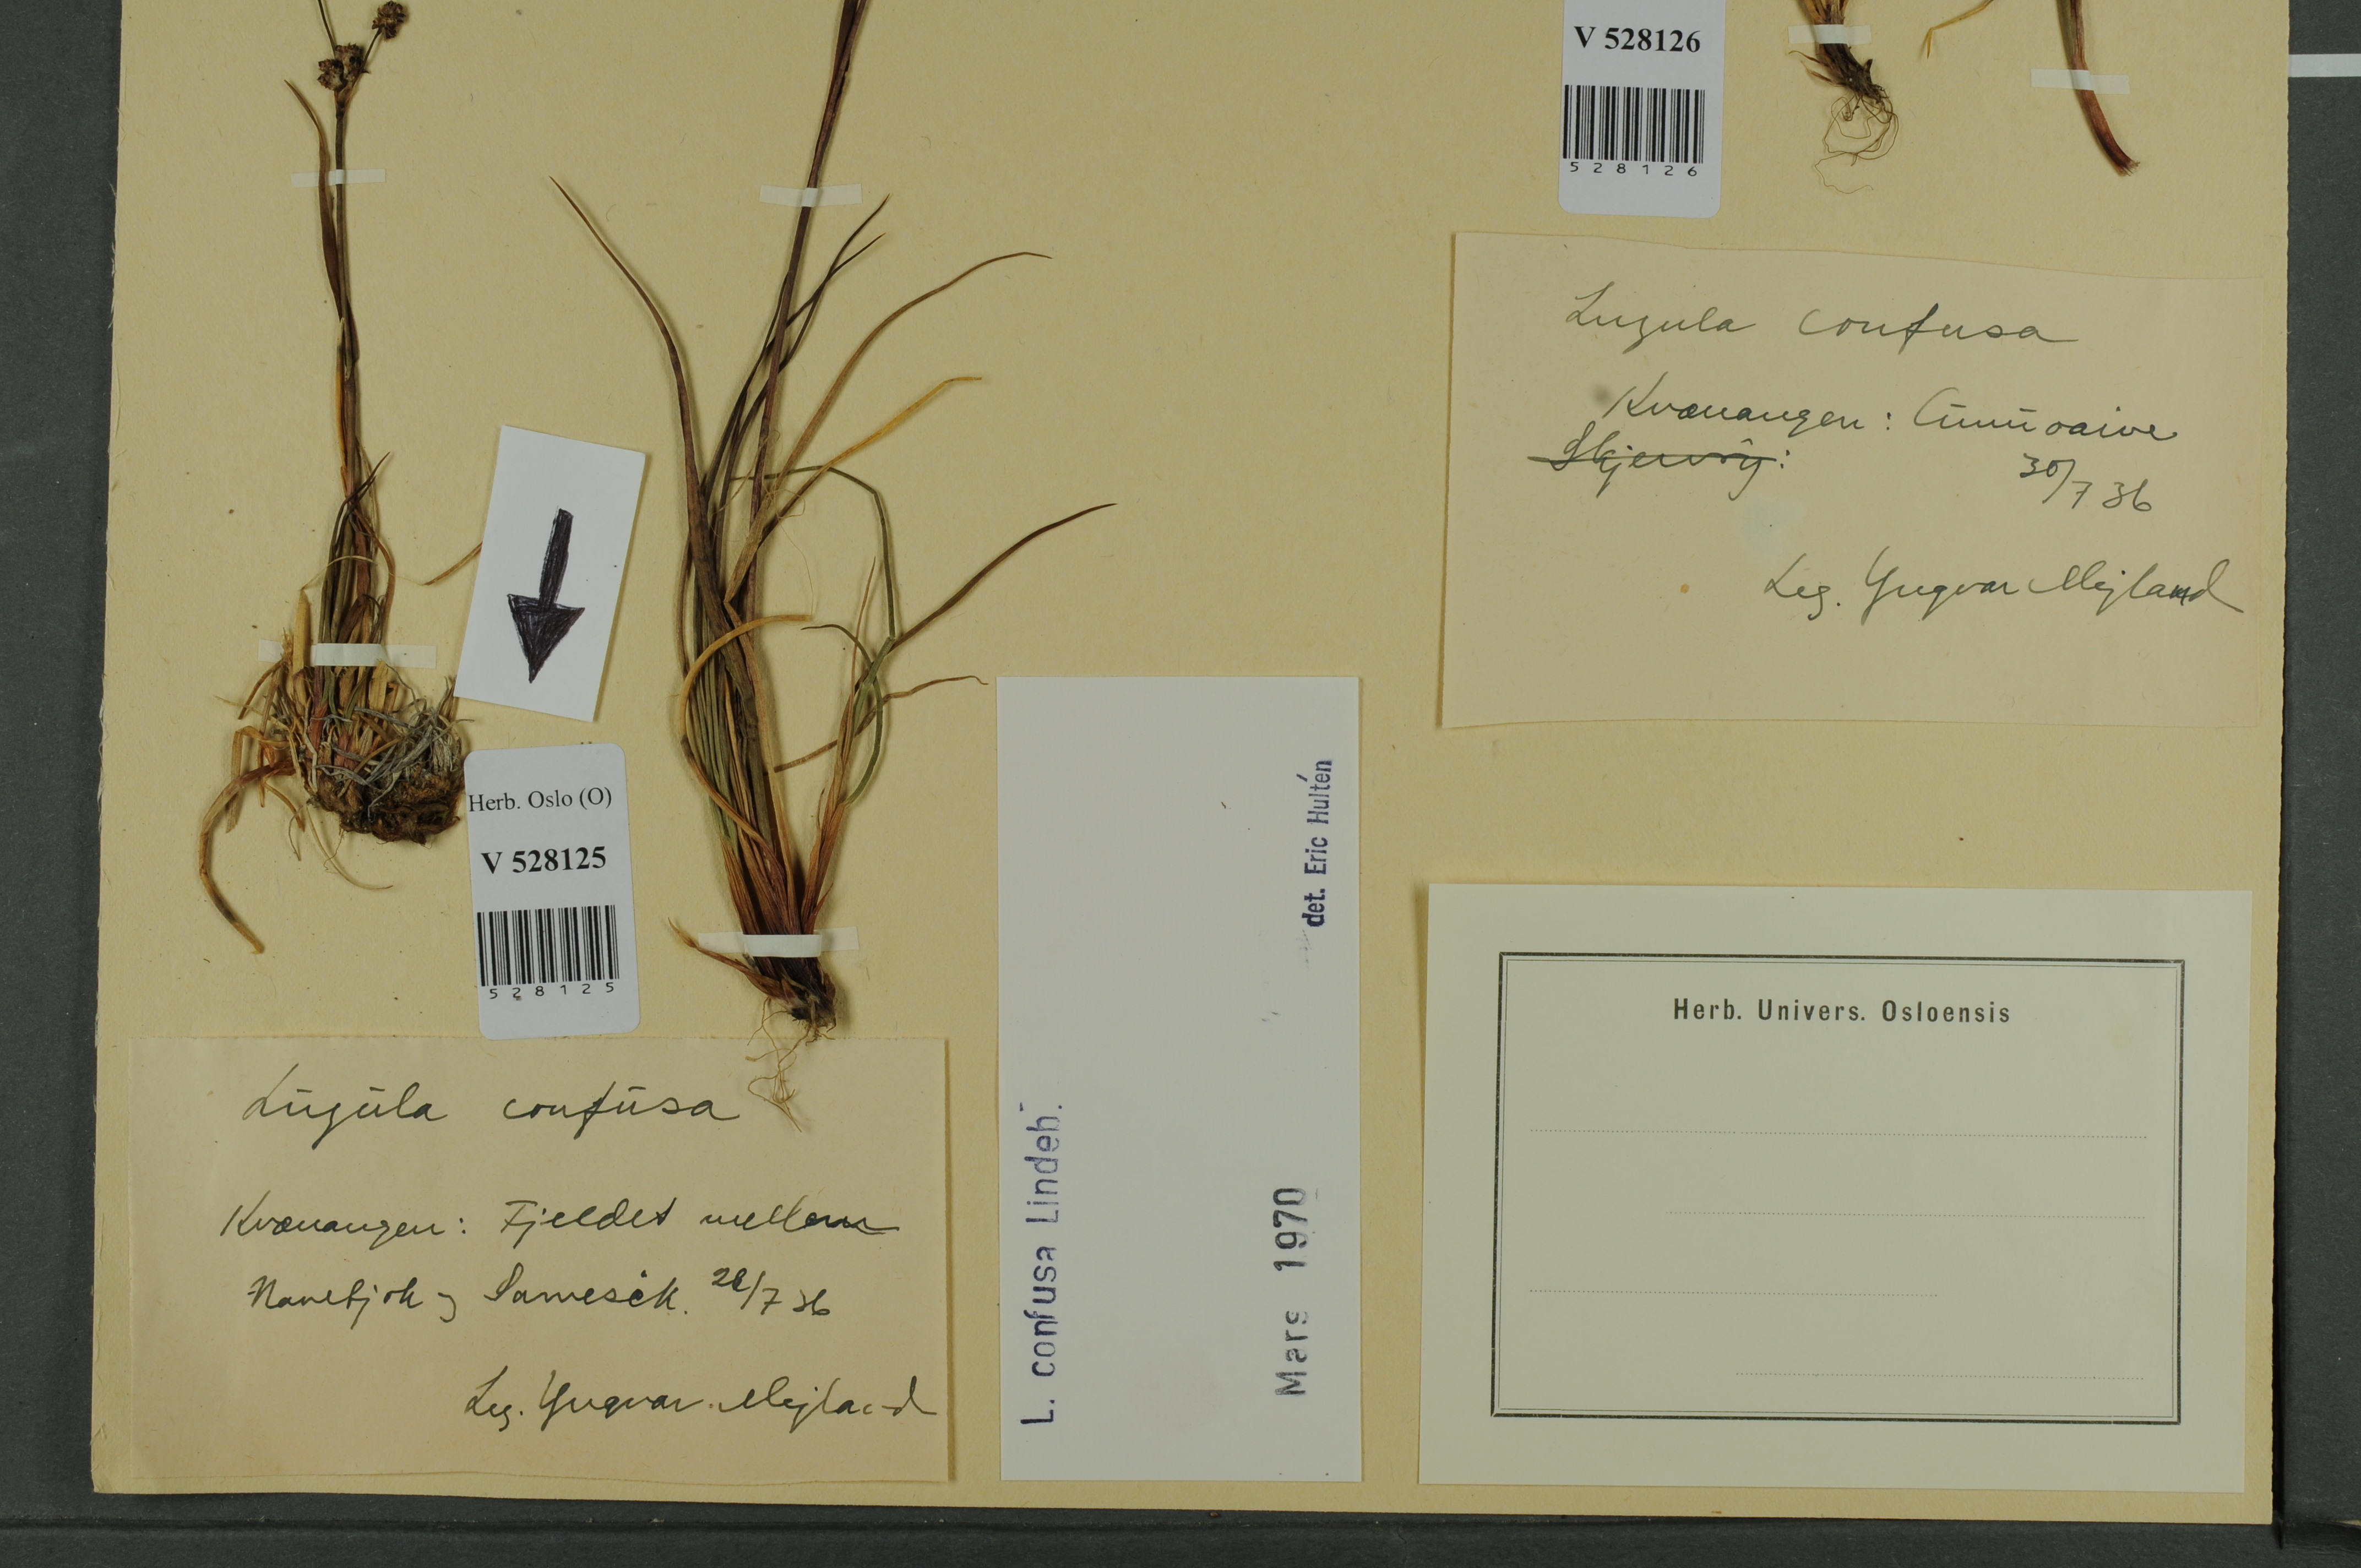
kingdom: Plantae
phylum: Tracheophyta
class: Liliopsida
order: Poales
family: Juncaceae
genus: Luzula
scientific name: Luzula confusa
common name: Northern wood rush
